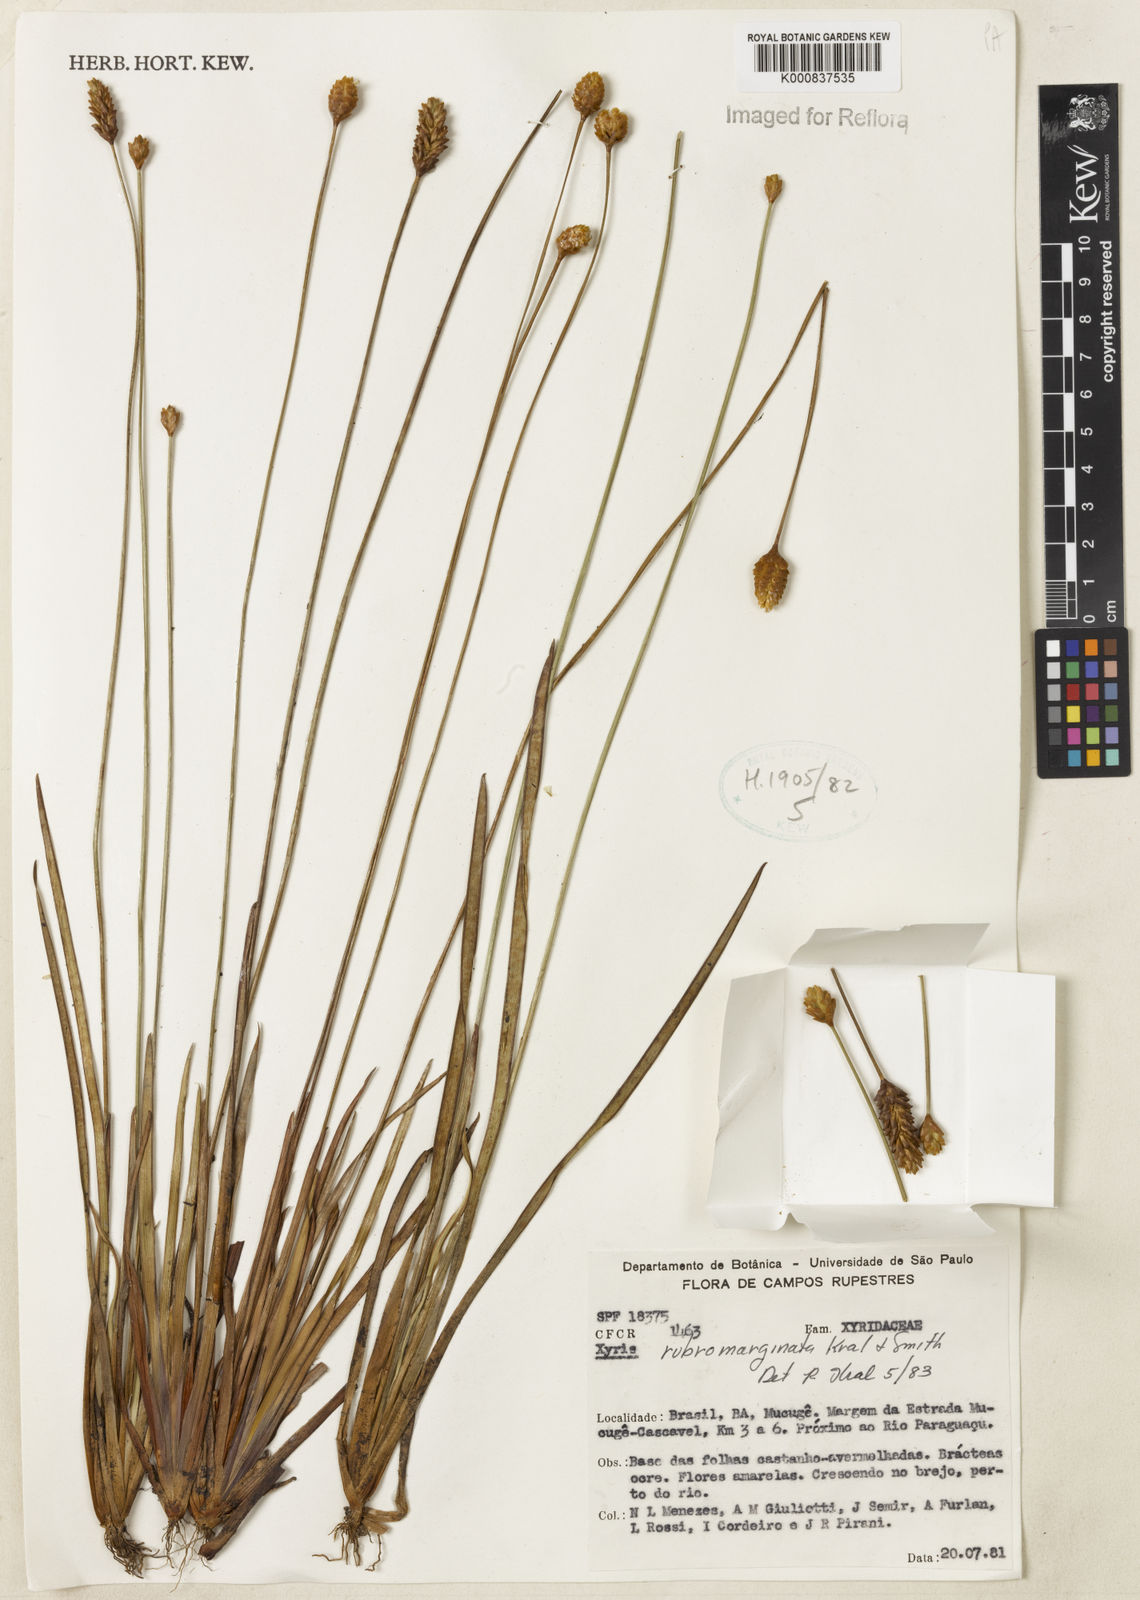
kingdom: Plantae
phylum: Tracheophyta
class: Liliopsida
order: Poales
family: Xyridaceae
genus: Xyris
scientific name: Xyris rubromarginata
